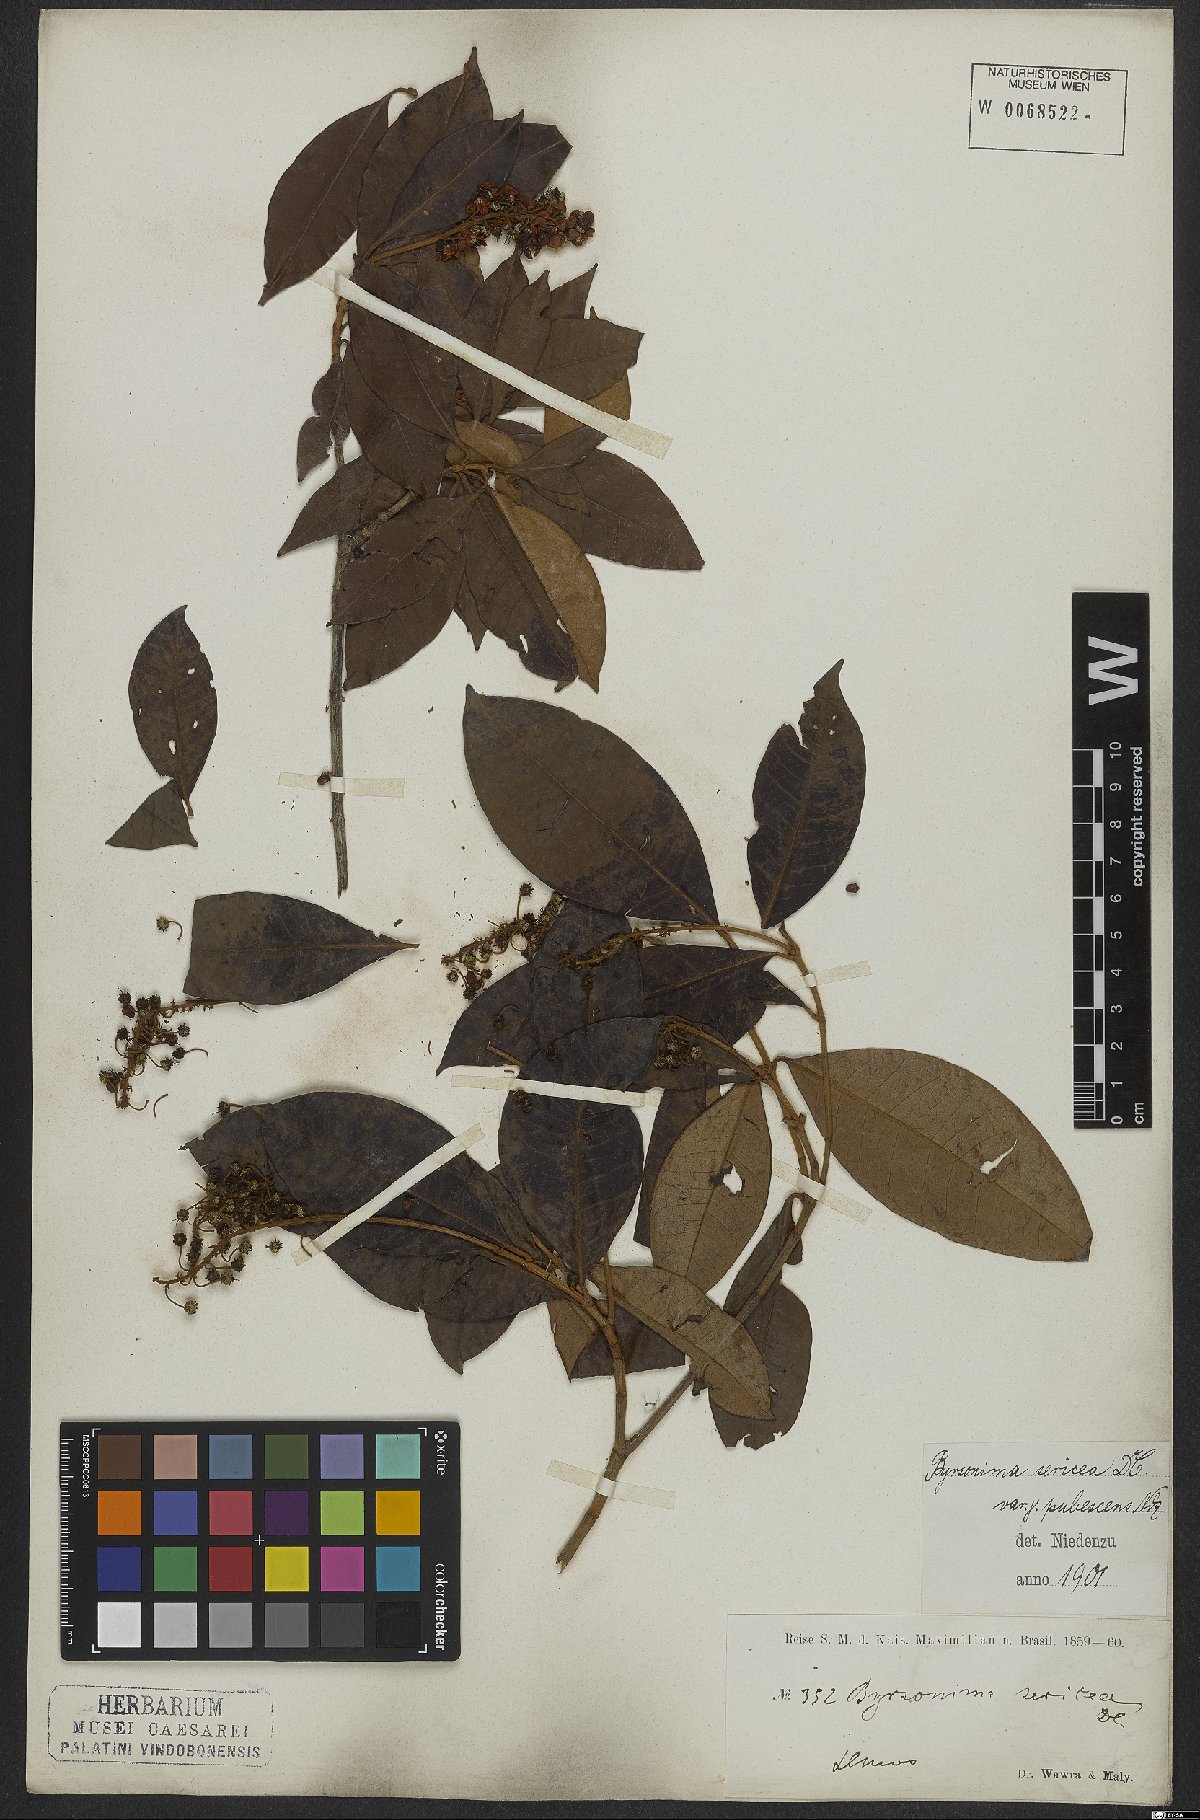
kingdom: Plantae
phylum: Tracheophyta
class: Magnoliopsida
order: Malpighiales
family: Malpighiaceae
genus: Byrsonima
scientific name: Byrsonima sericea
